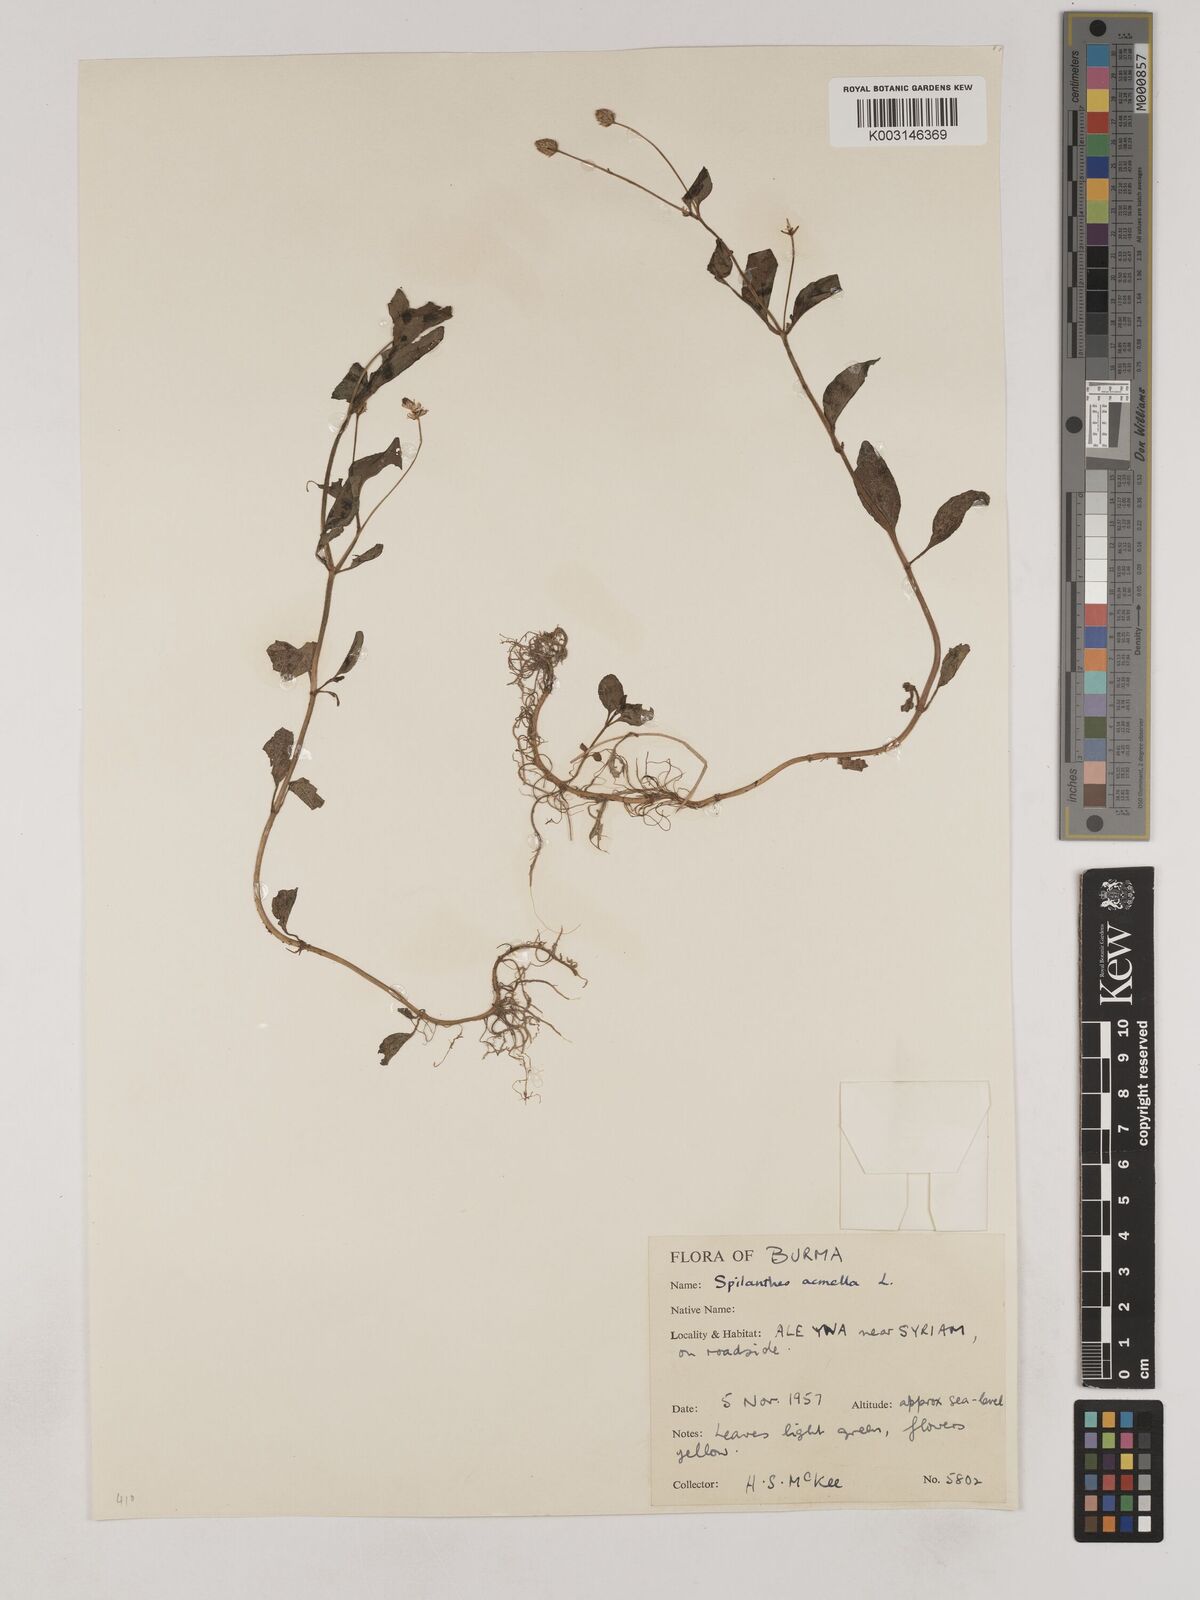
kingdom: Plantae
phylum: Tracheophyta
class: Magnoliopsida
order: Asterales
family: Asteraceae
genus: Acmella
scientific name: Acmella paniculata
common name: Panicled spot flower
